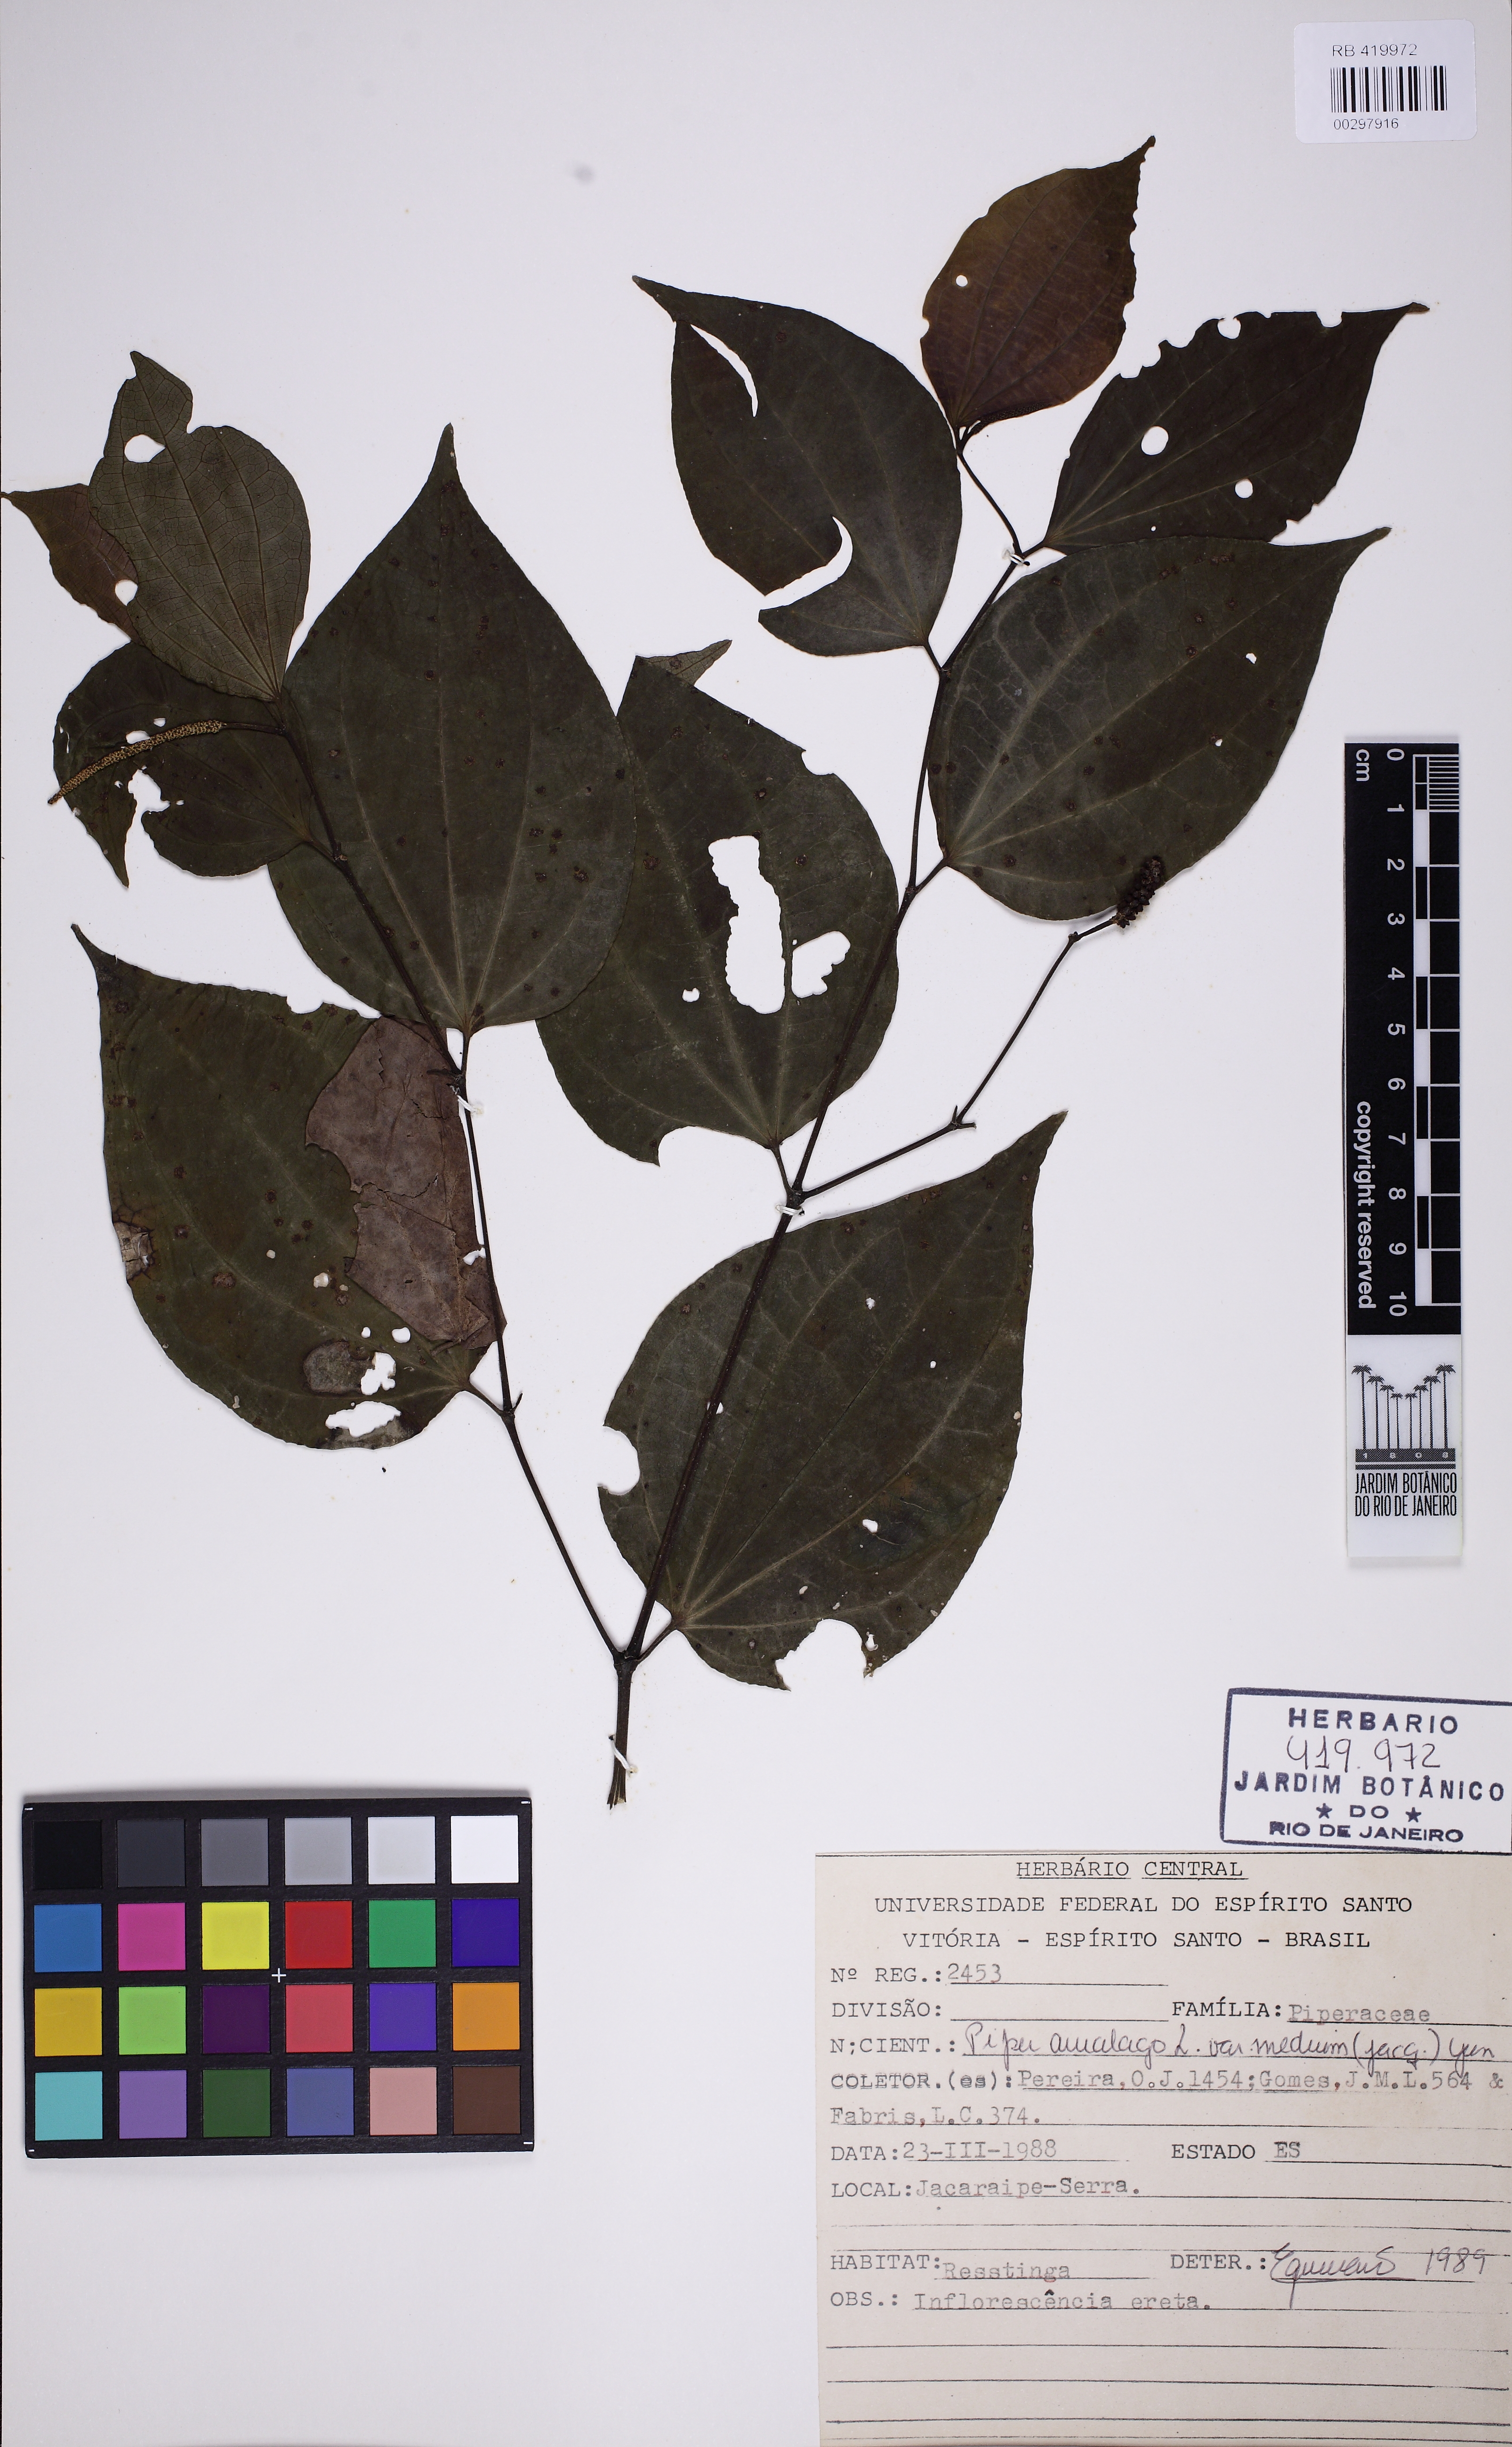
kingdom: Plantae
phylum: Tracheophyta
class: Magnoliopsida
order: Piperales
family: Piperaceae
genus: Piper
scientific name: Piper amalago
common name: Pepper-elder
